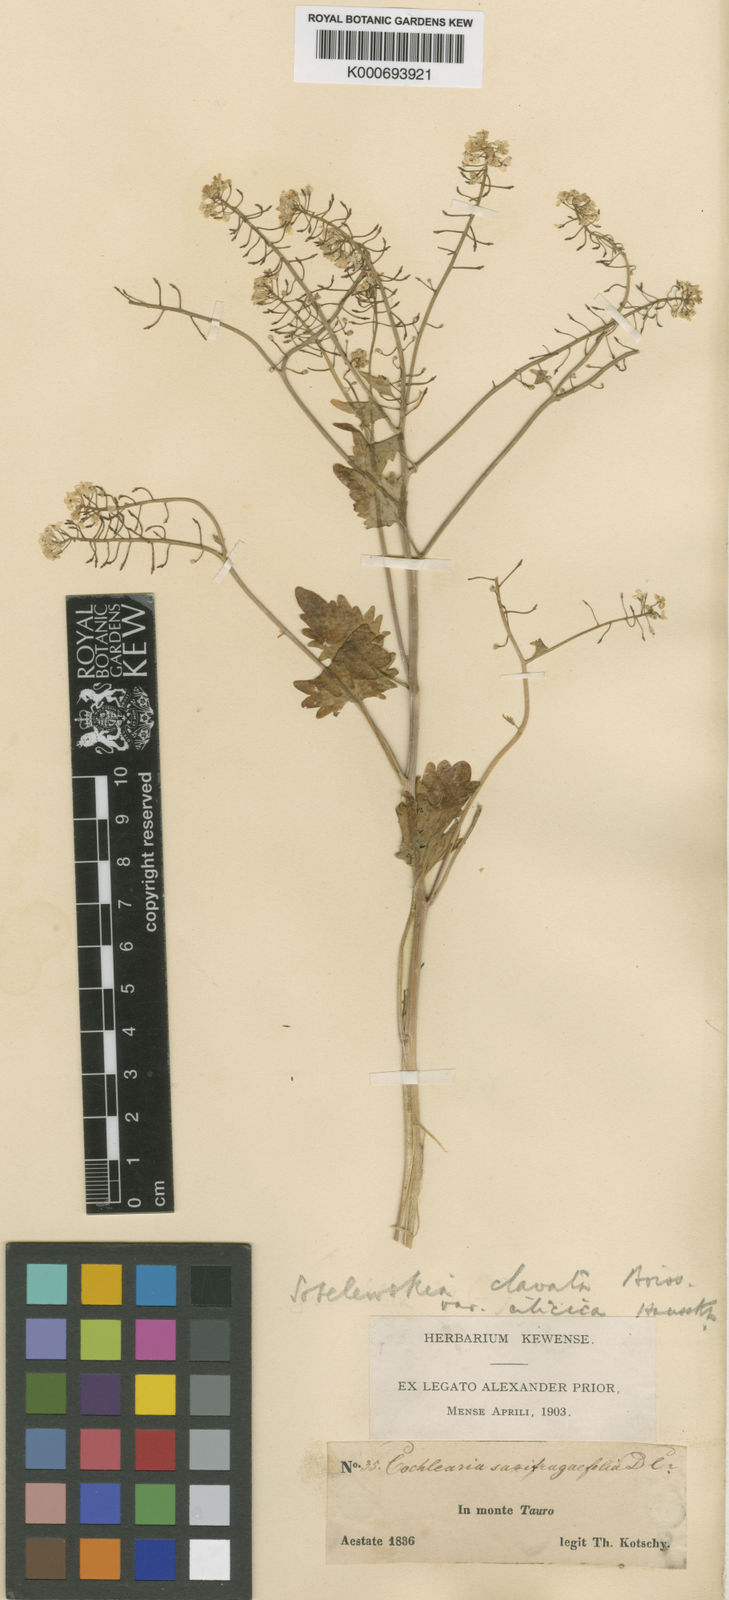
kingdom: Plantae
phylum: Tracheophyta
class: Magnoliopsida
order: Brassicales
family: Brassicaceae
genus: Sobolewskia
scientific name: Sobolewskia clavata
